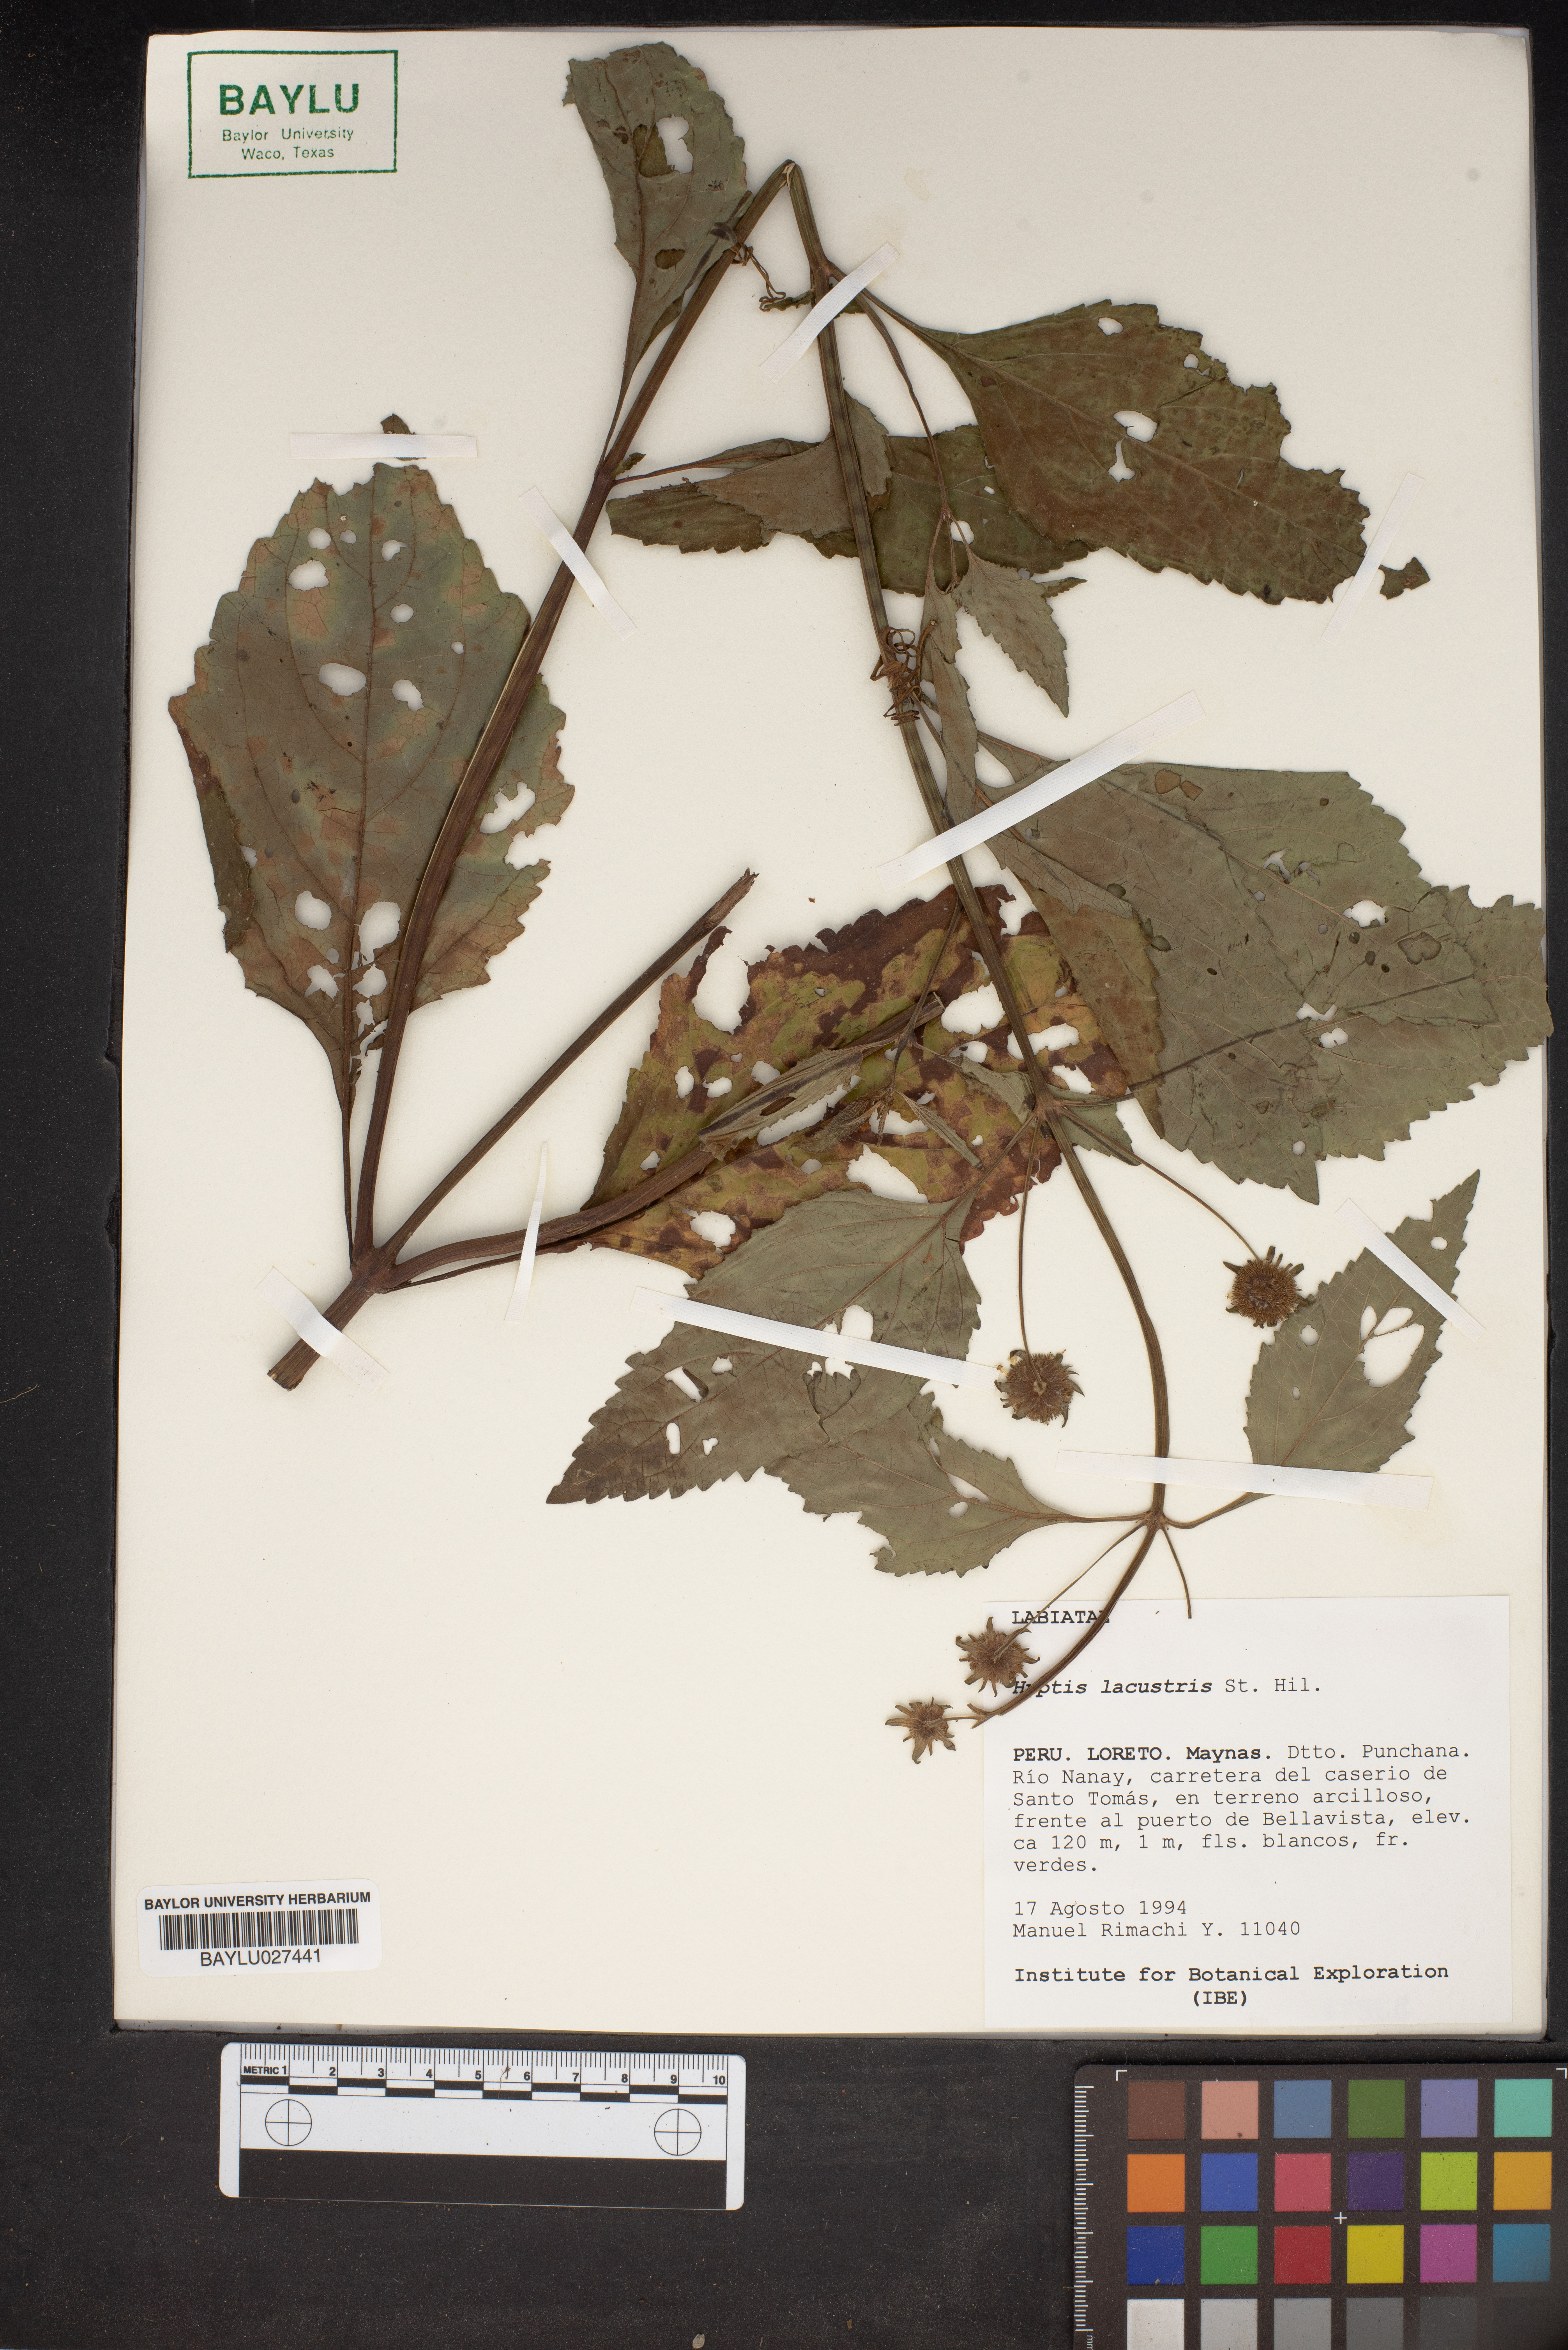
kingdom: Plantae
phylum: Tracheophyta
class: Magnoliopsida
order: Lamiales
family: Lamiaceae
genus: Hyptis
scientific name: Hyptis lacustris
